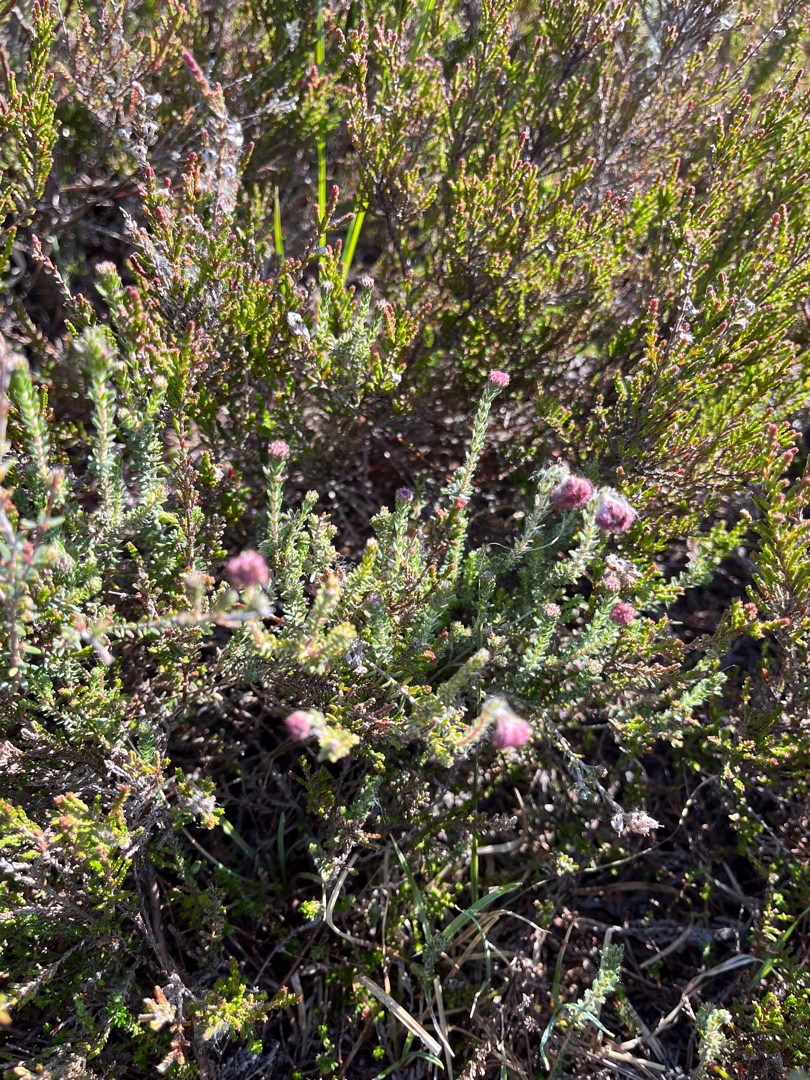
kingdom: Plantae
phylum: Tracheophyta
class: Magnoliopsida
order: Ericales
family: Ericaceae
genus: Erica
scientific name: Erica tetralix
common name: Klokkelyng
